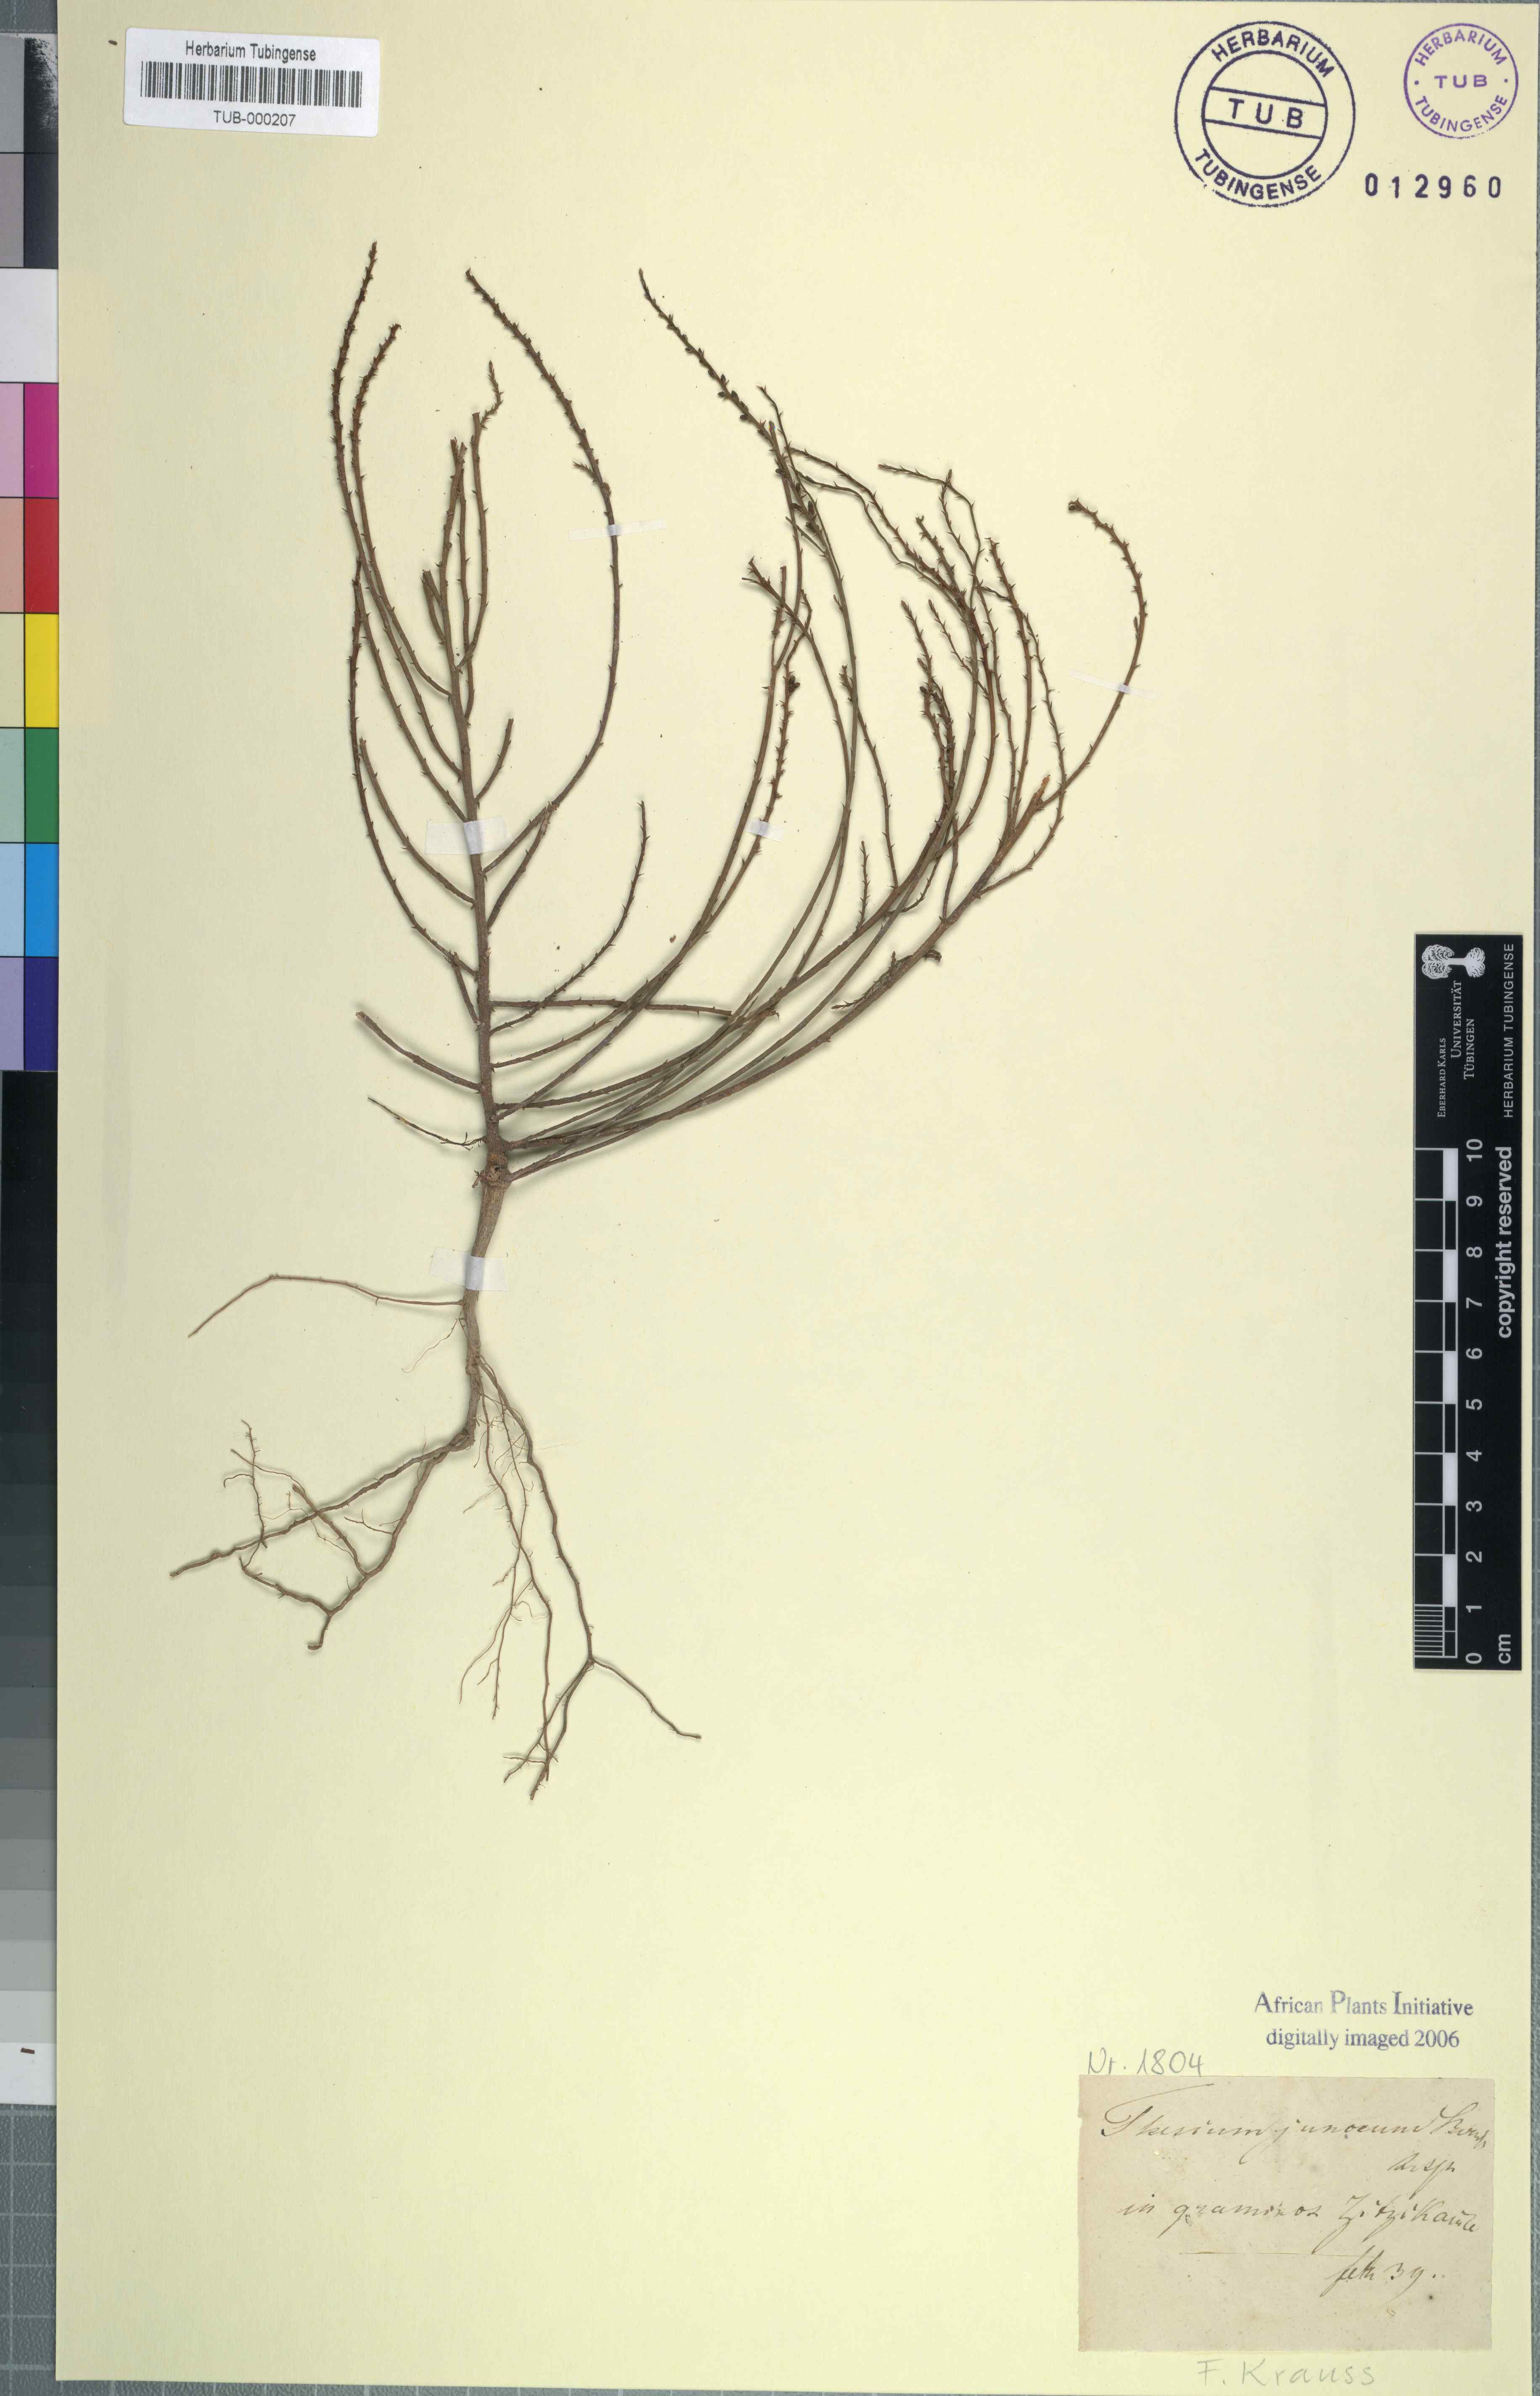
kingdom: Plantae
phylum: Tracheophyta
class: Magnoliopsida
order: Santalales
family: Thesiaceae
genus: Thesium
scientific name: Thesium junceum
